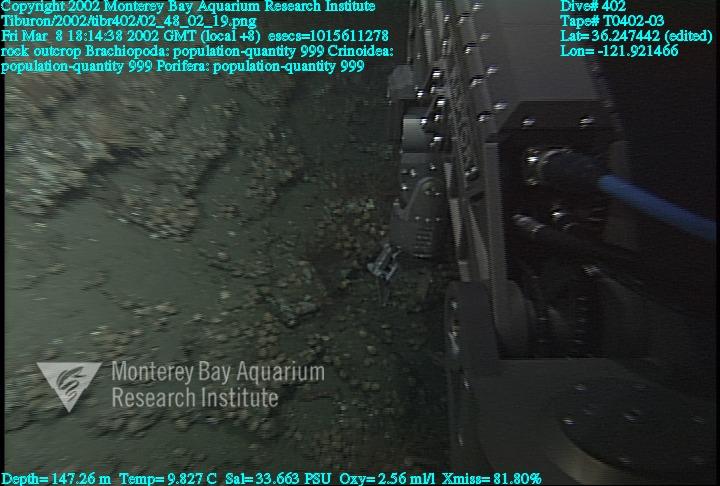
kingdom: Animalia
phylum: Porifera
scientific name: Porifera
